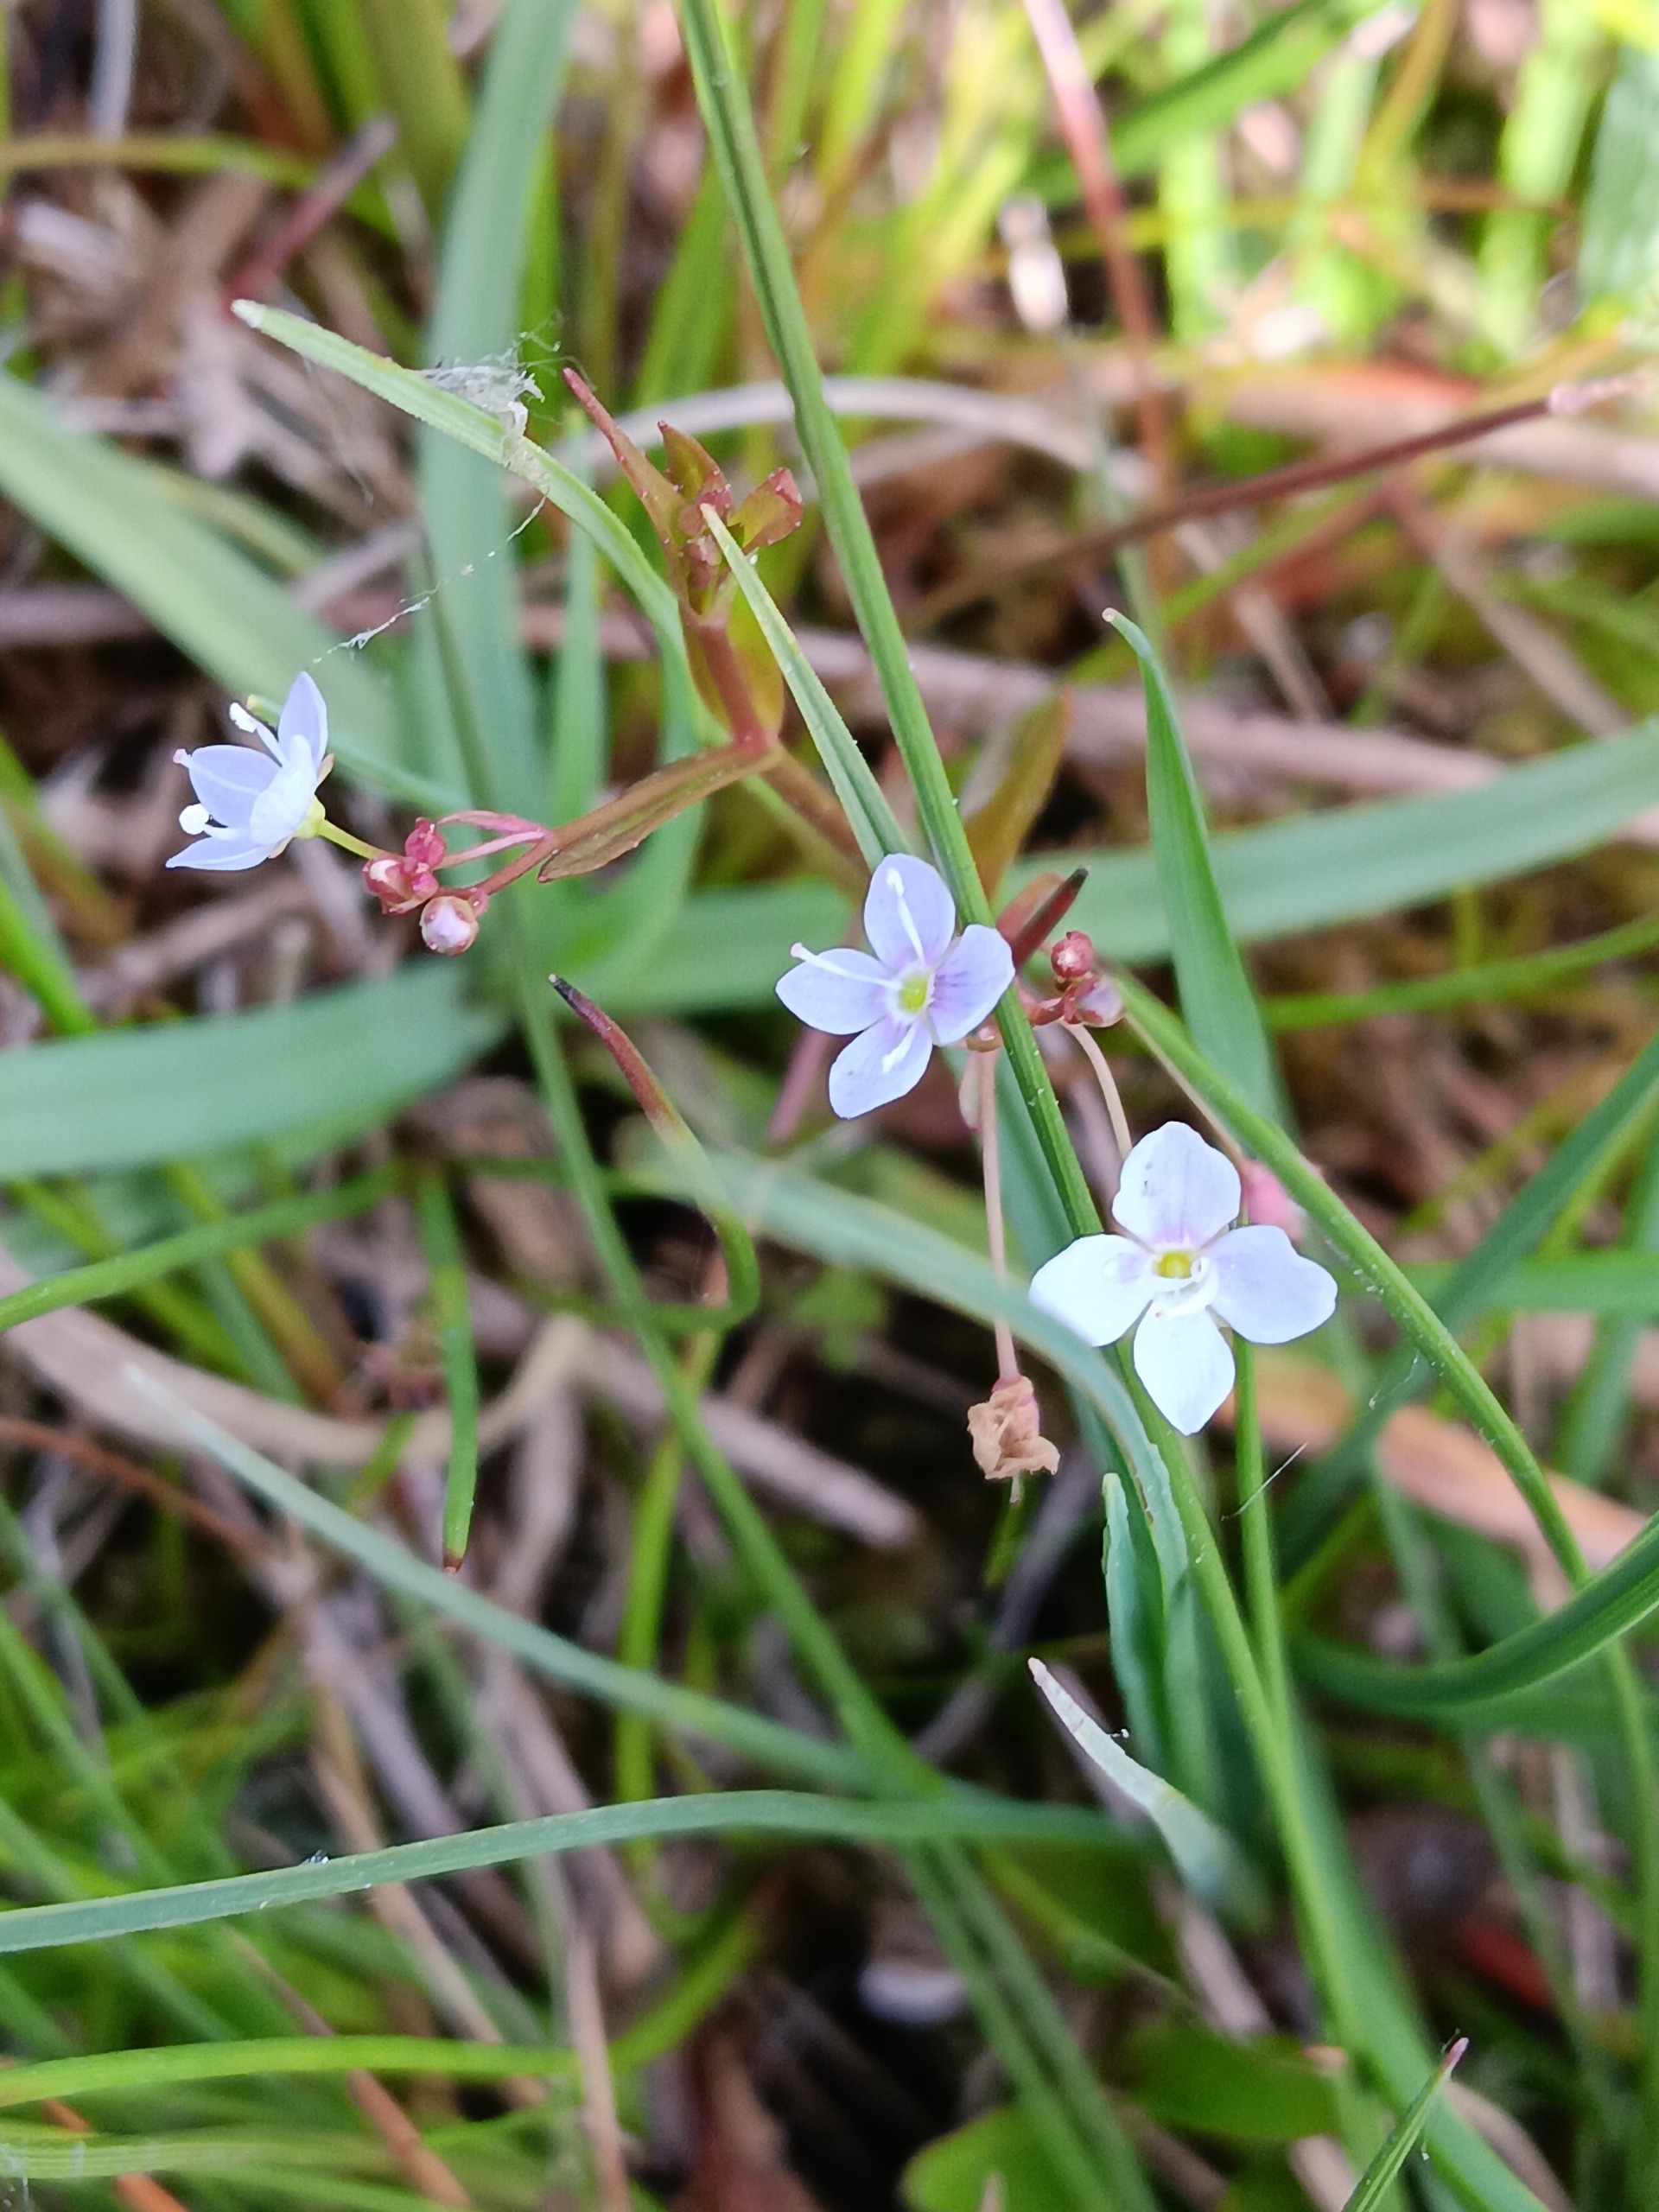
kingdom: Plantae
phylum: Tracheophyta
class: Magnoliopsida
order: Lamiales
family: Plantaginaceae
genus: Veronica
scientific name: Veronica scutellata
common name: Smalbladet ærenpris
